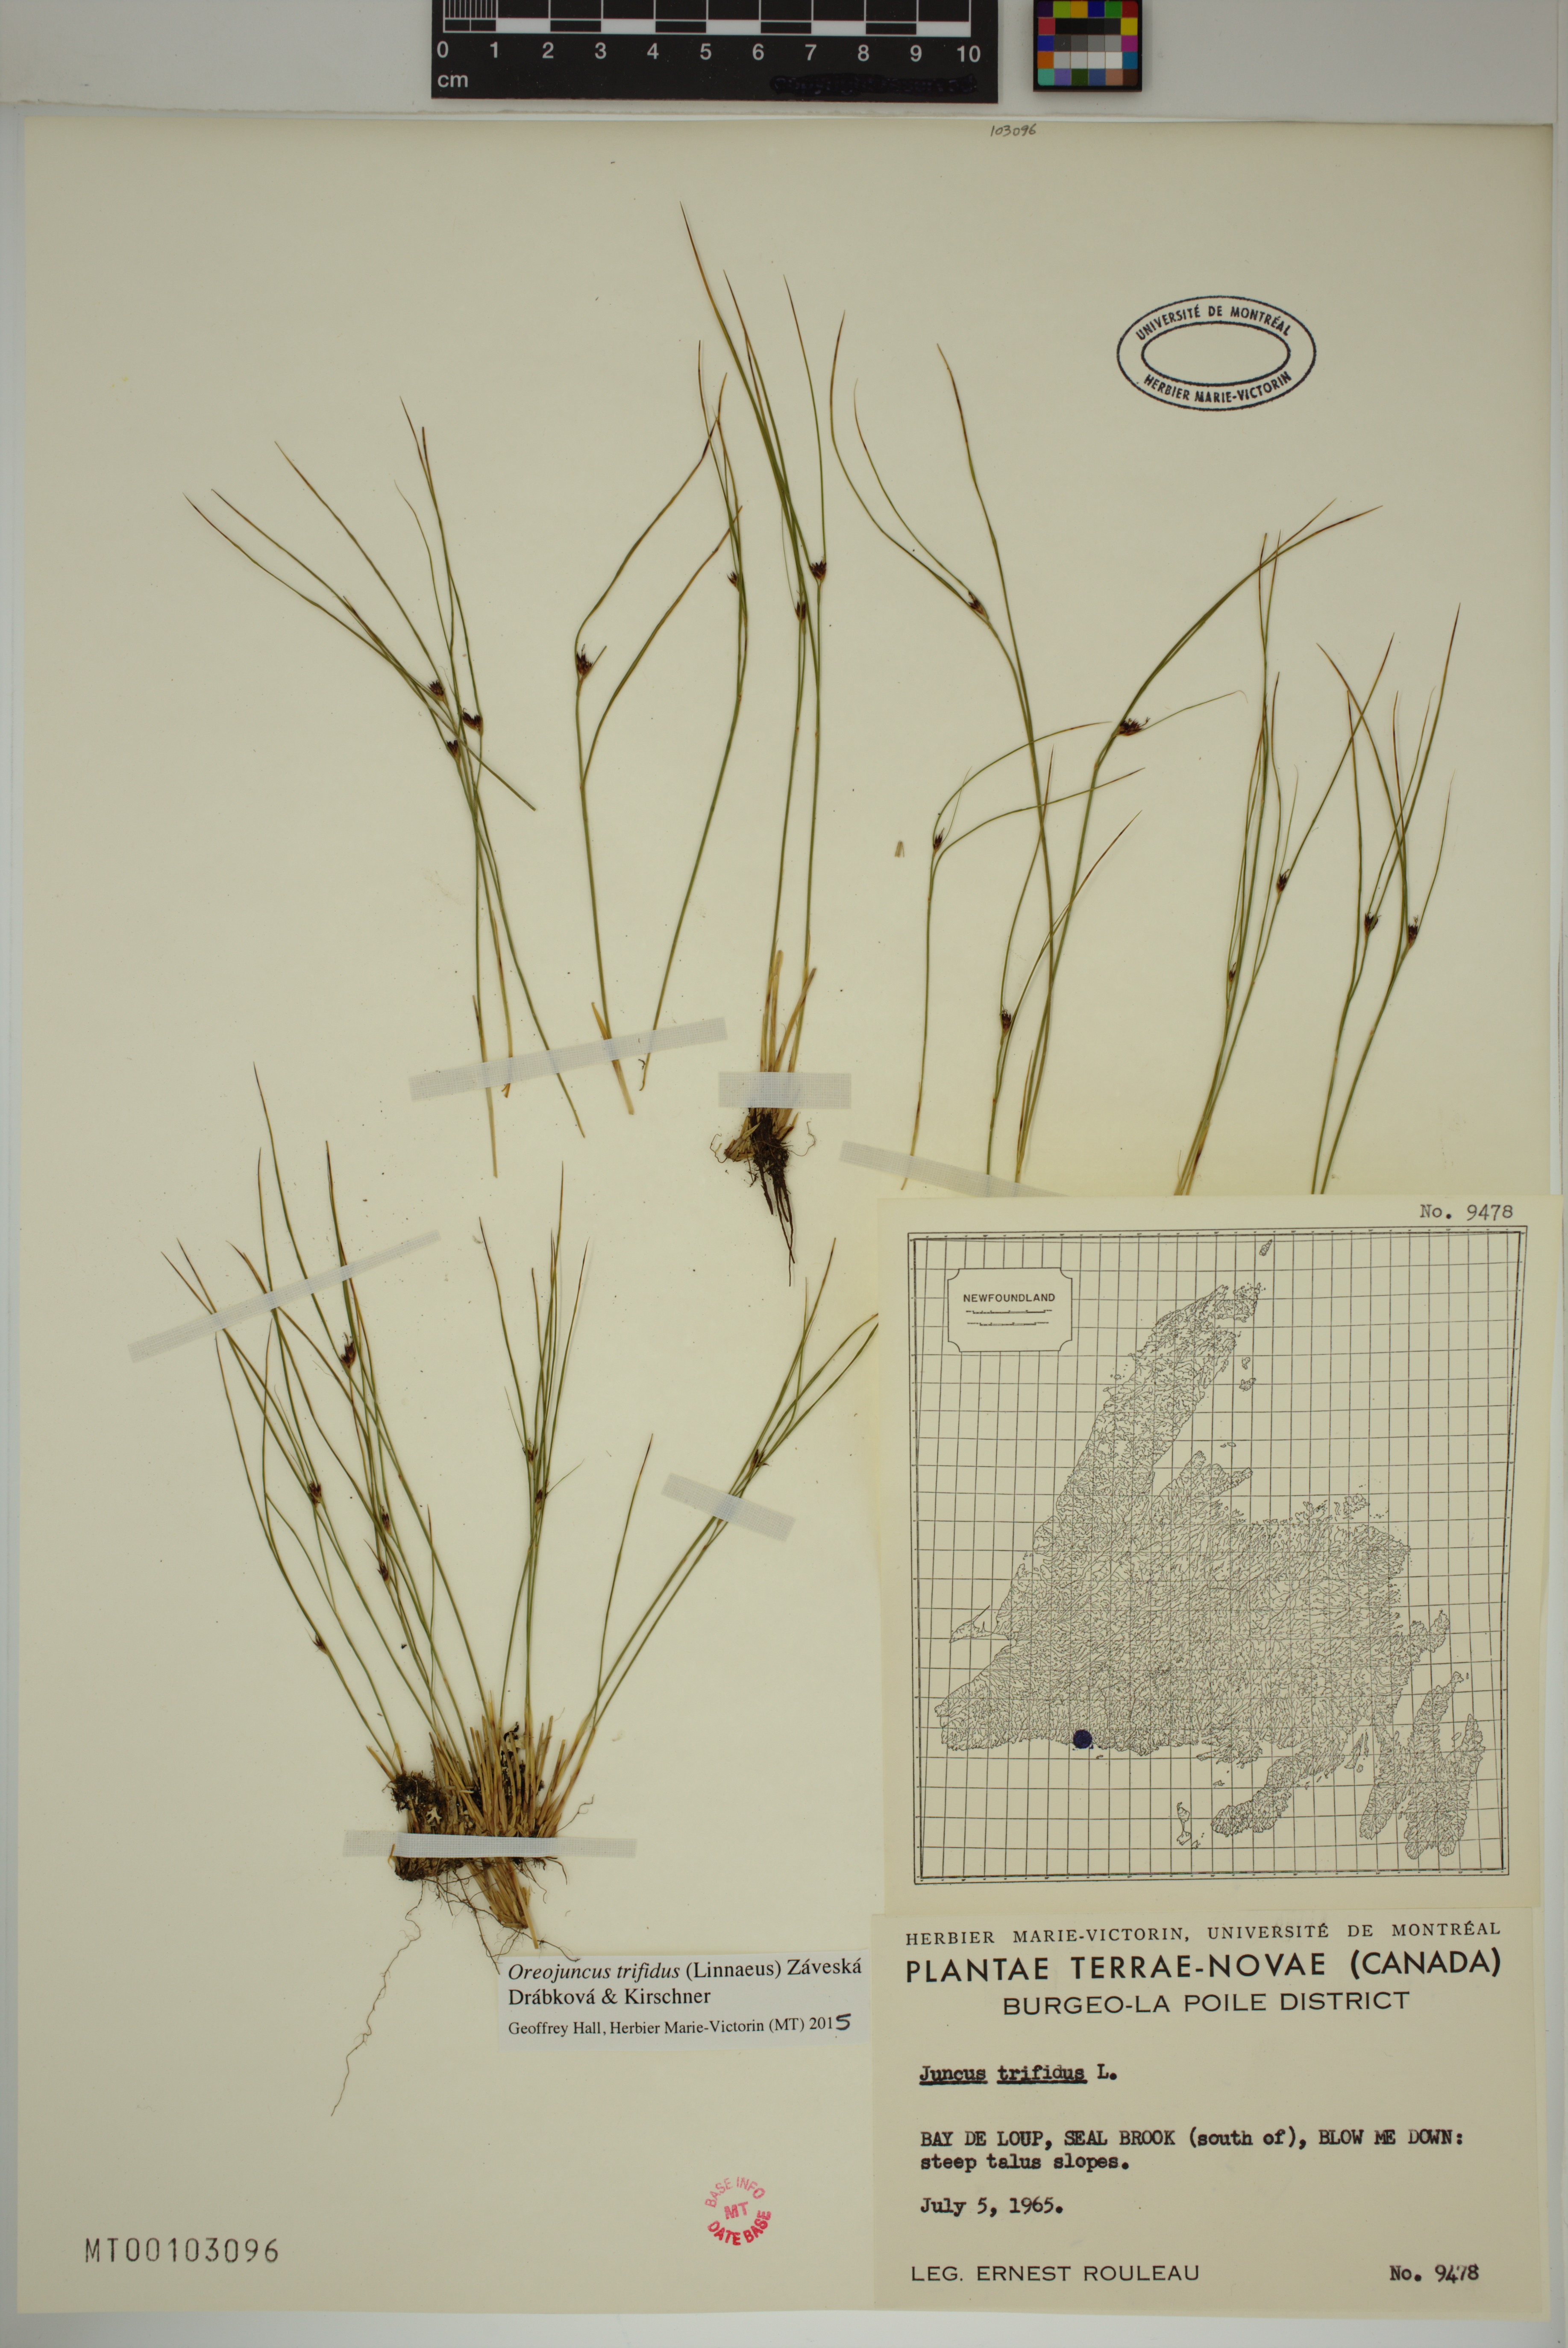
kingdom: Plantae
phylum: Tracheophyta
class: Liliopsida
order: Poales
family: Juncaceae
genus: Oreojuncus
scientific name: Oreojuncus trifidus
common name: Highland rush
